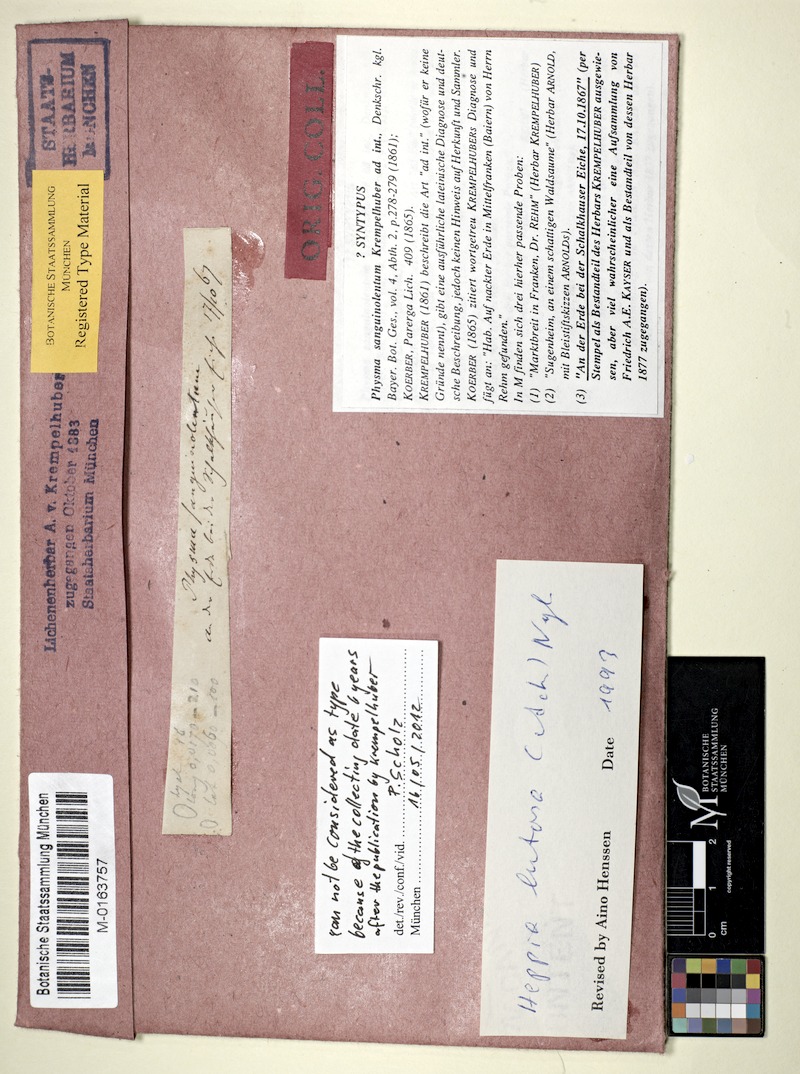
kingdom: Fungi
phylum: Ascomycota
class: Lichinomycetes
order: Lichinales
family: Lichinaceae
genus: Heppia
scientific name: Heppia lutosa
